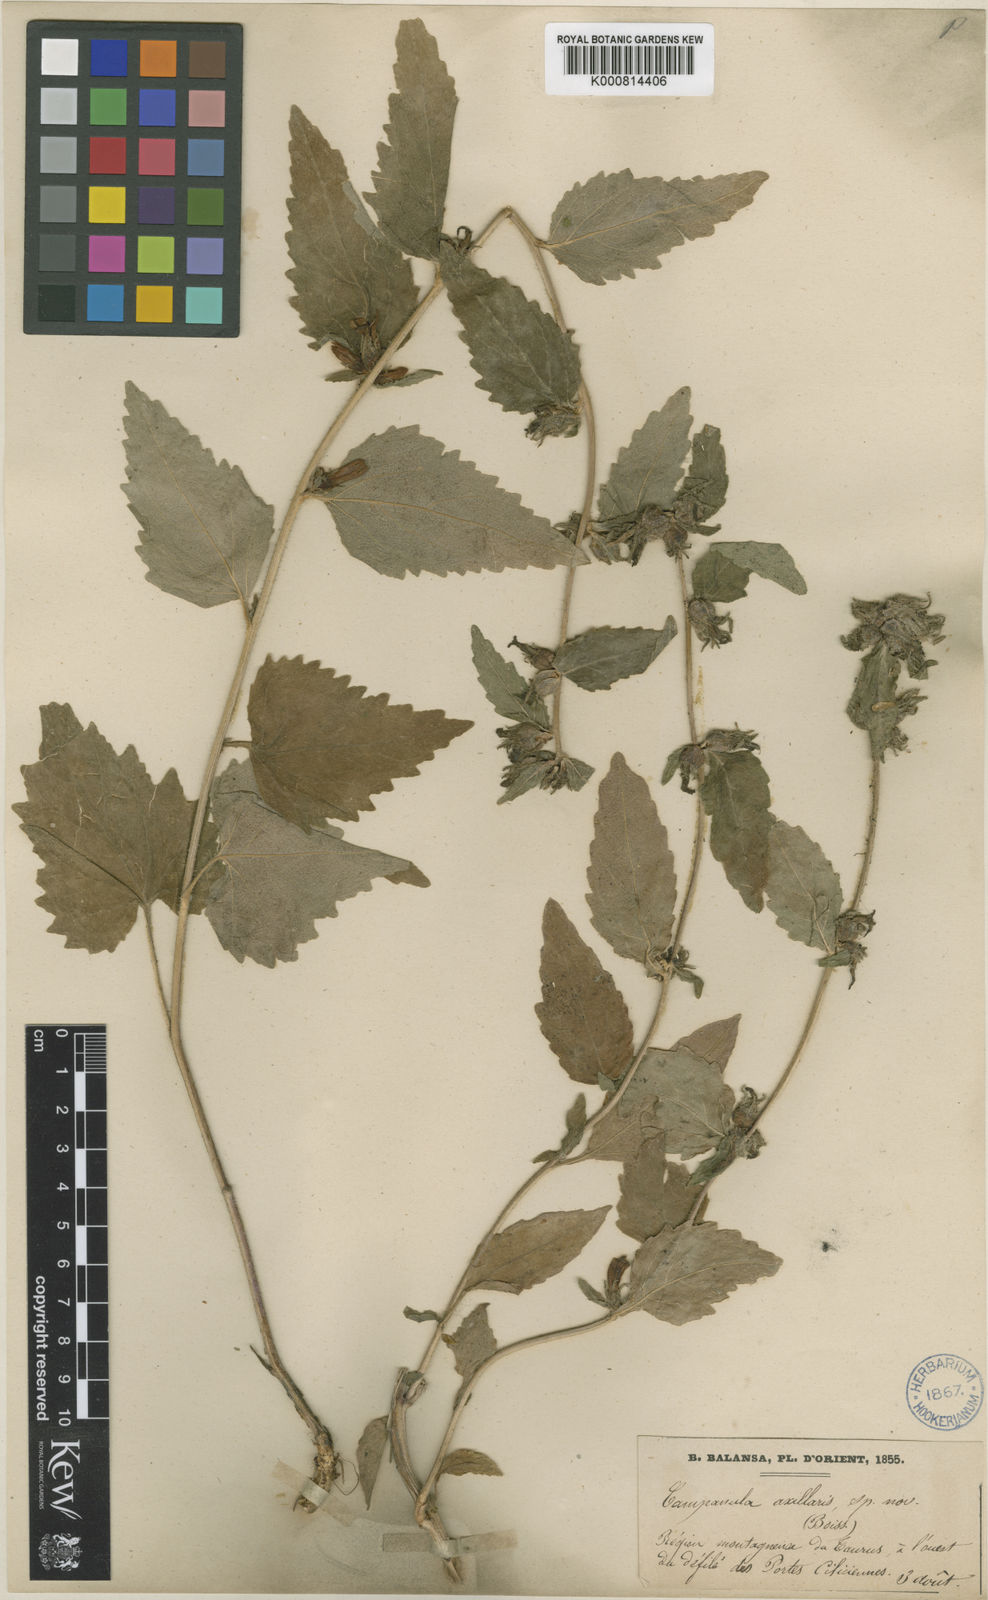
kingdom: Plantae
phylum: Tracheophyta
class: Magnoliopsida
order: Asterales
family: Campanulaceae
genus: Campanula
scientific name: Campanula axillaris
